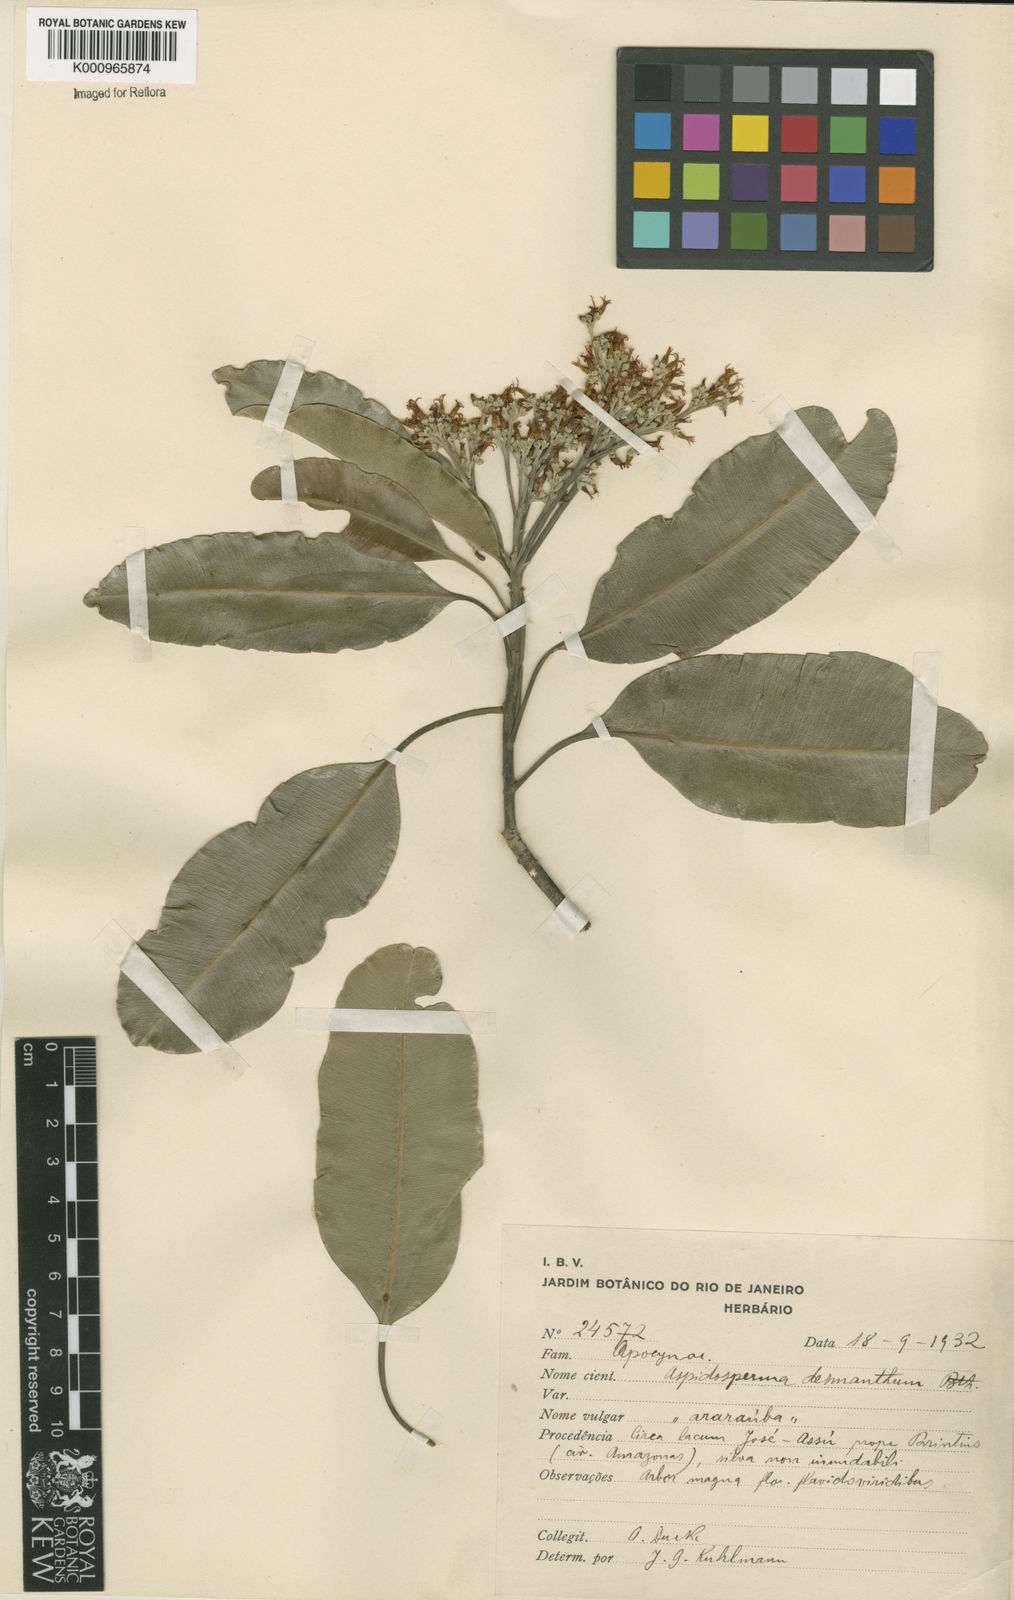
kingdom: Plantae
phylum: Tracheophyta
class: Magnoliopsida
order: Gentianales
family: Apocynaceae
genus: Aspidosperma
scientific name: Aspidosperma album
